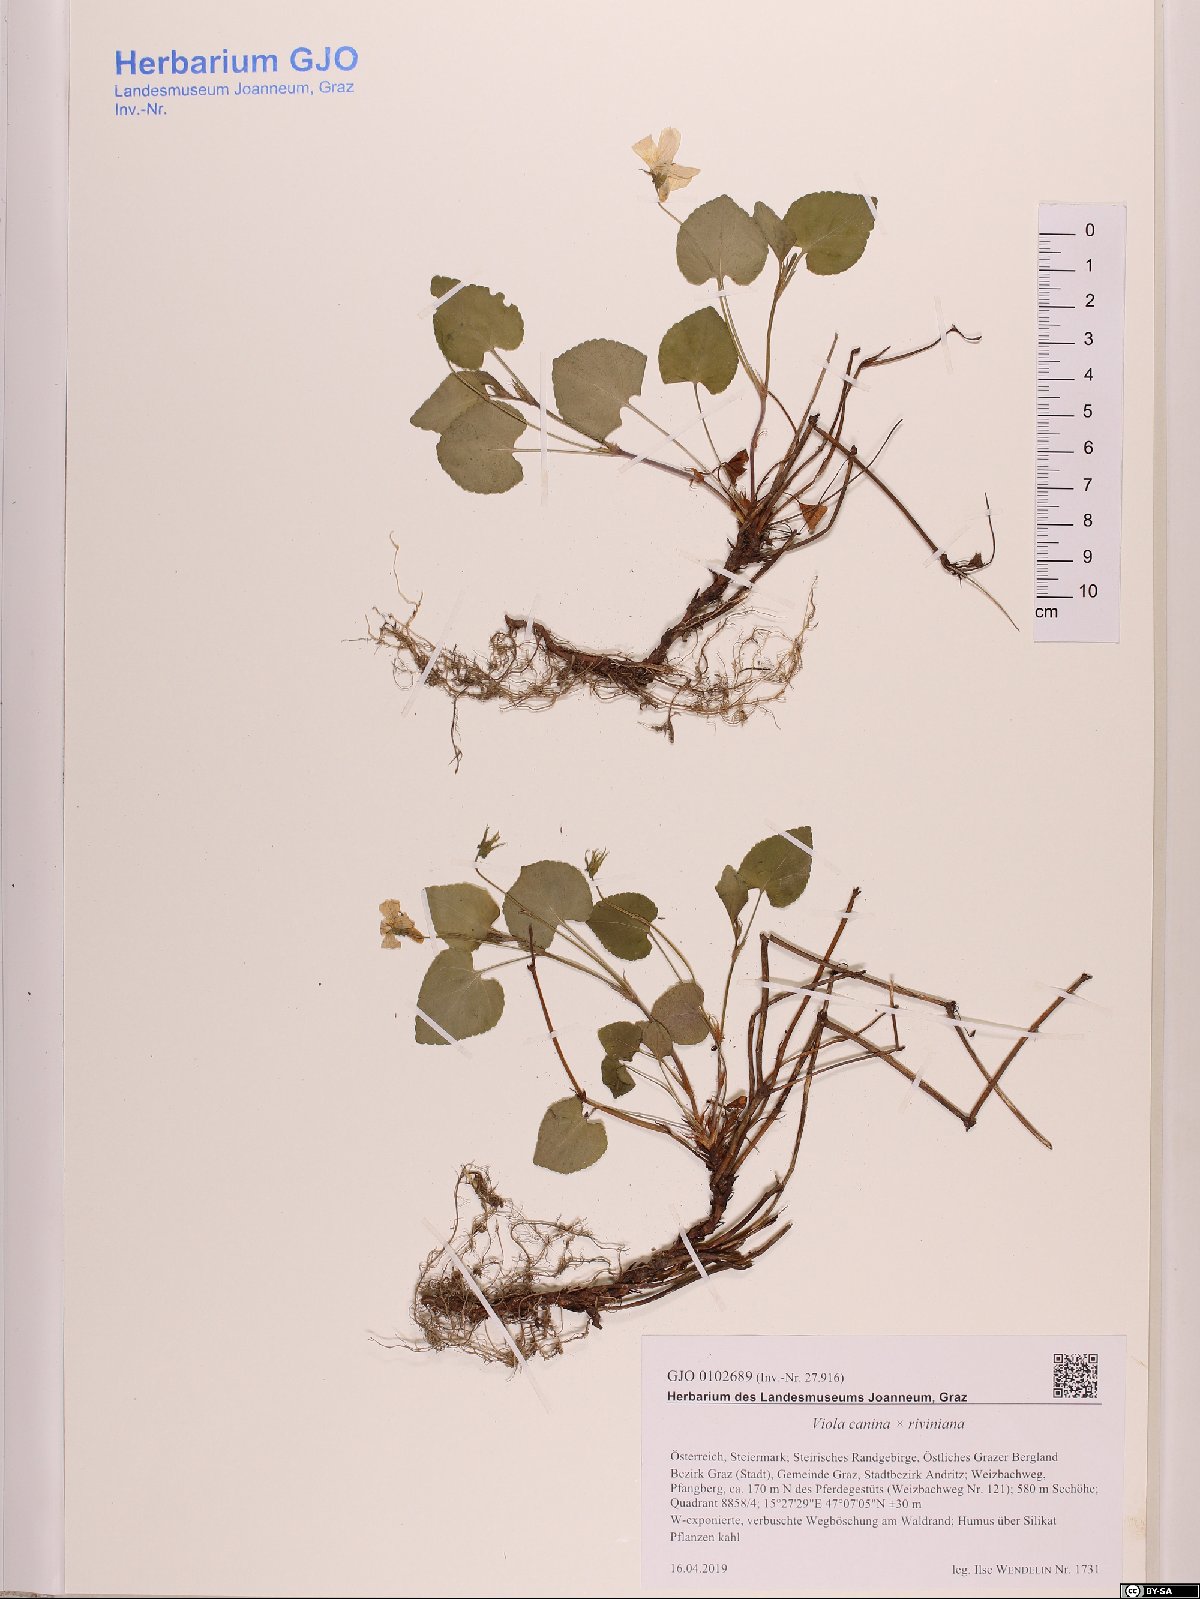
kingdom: Plantae
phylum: Tracheophyta
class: Magnoliopsida
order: Malpighiales
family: Violaceae
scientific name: Violaceae
